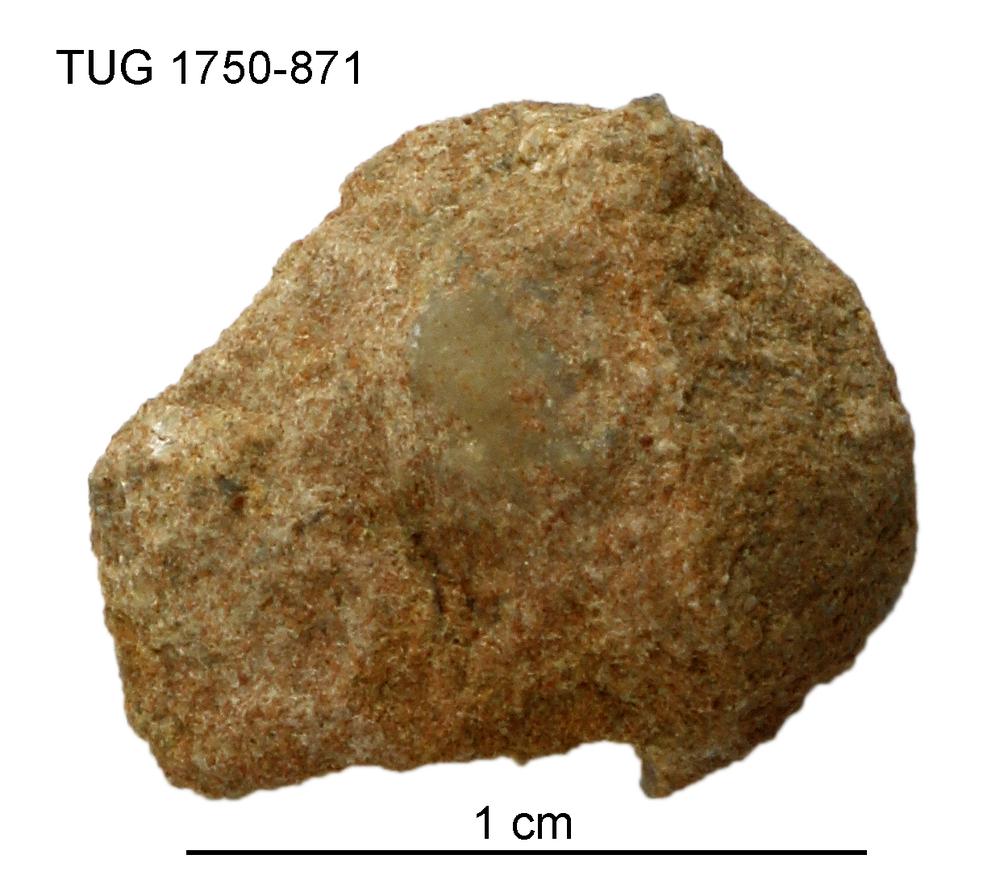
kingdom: Animalia
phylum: Brachiopoda
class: Craniata
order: Craniida
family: Craniidae
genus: Philhedra
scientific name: Philhedra
